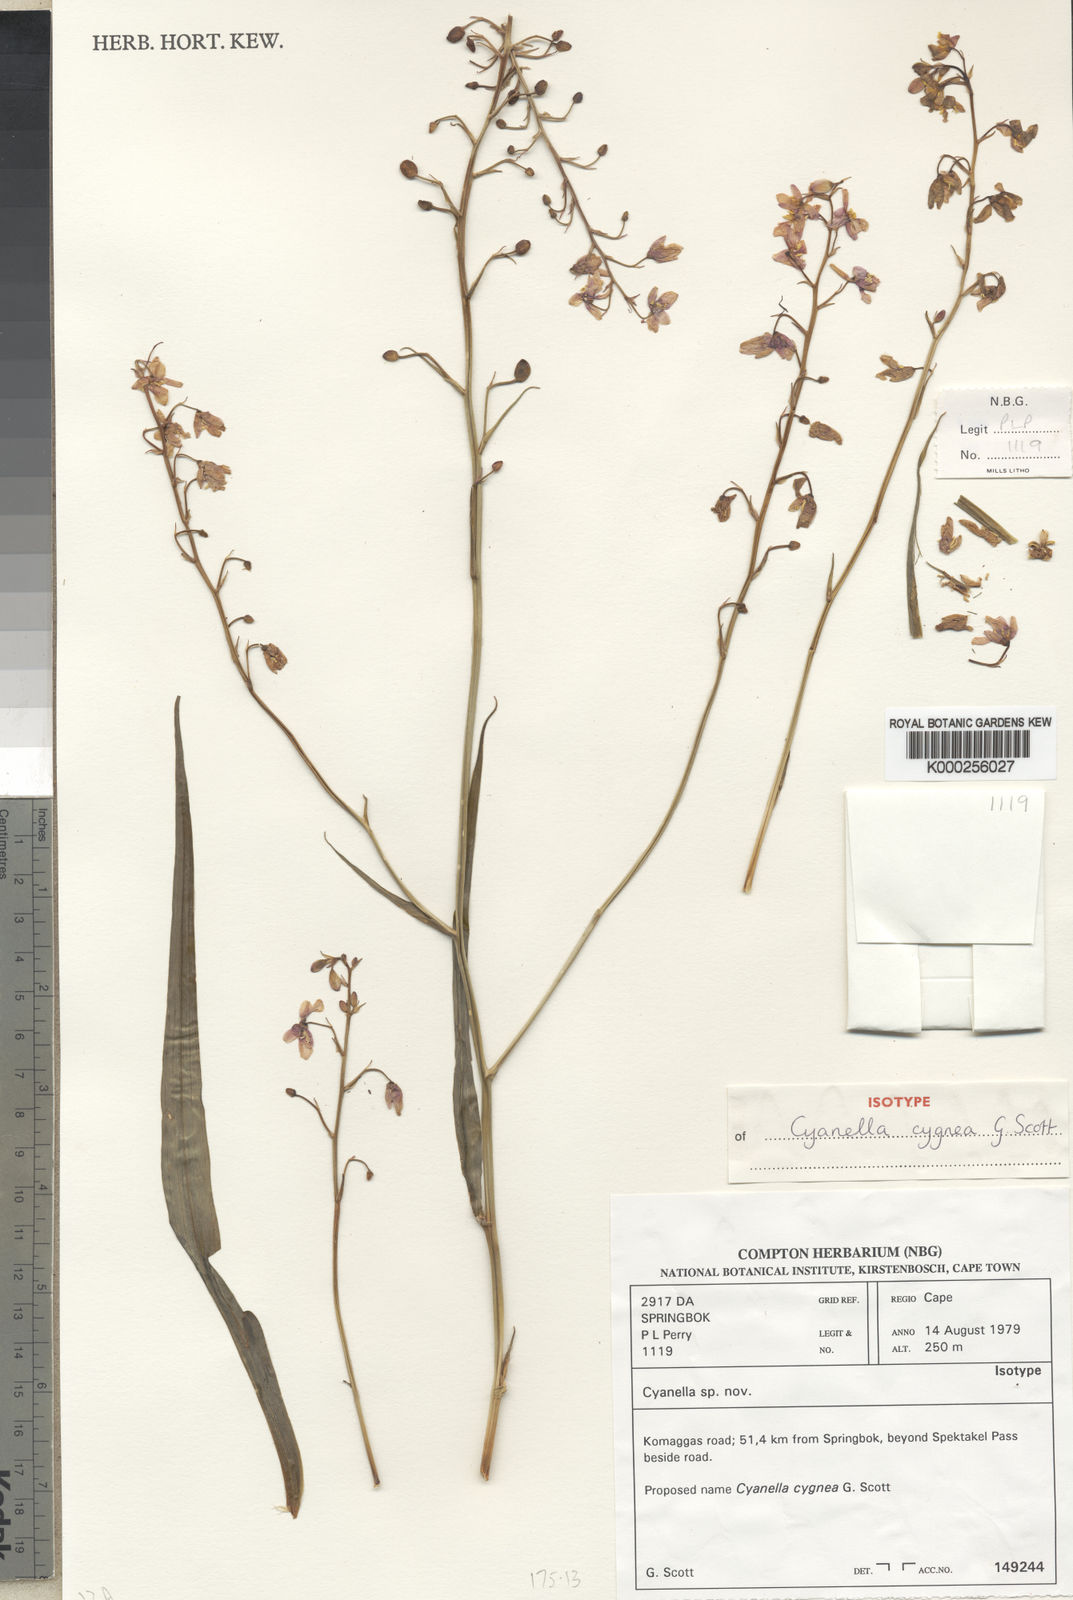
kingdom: Plantae
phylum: Tracheophyta
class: Liliopsida
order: Asparagales
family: Tecophilaeaceae
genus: Cyanella
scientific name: Cyanella cygnea
